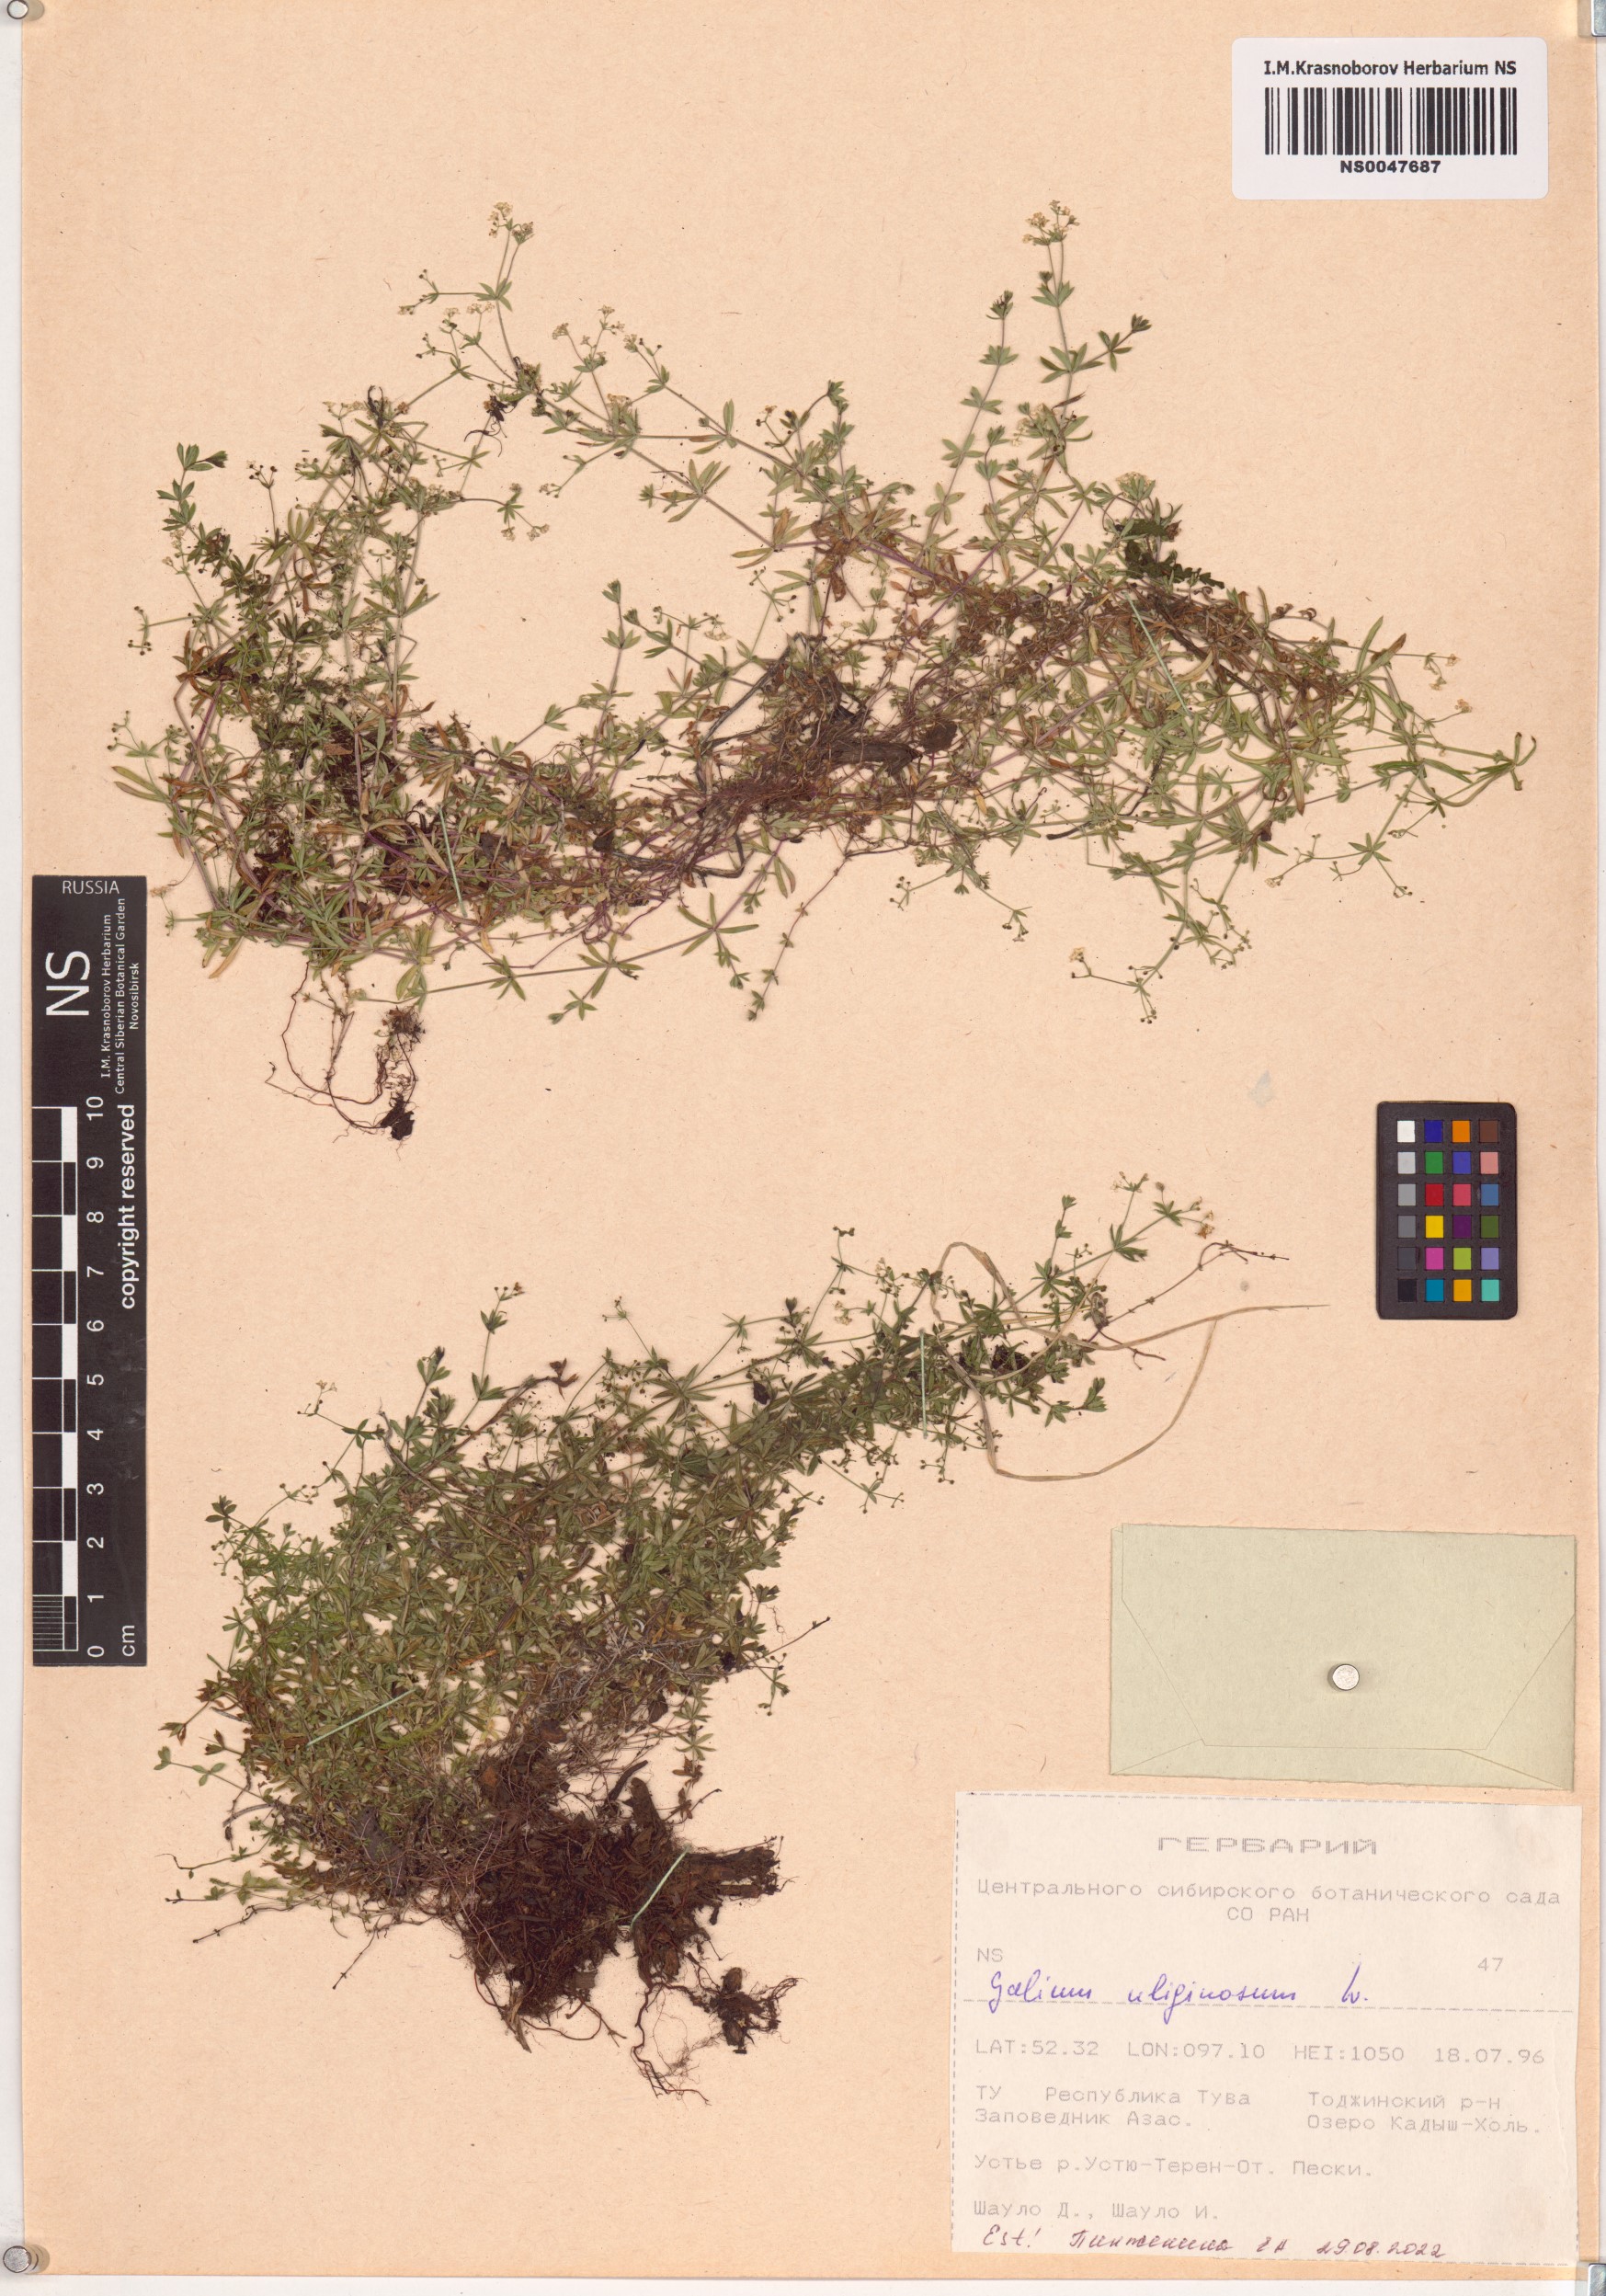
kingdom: Plantae
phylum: Tracheophyta
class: Magnoliopsida
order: Gentianales
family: Rubiaceae
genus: Galium
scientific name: Galium uliginosum
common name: Fen bedstraw
